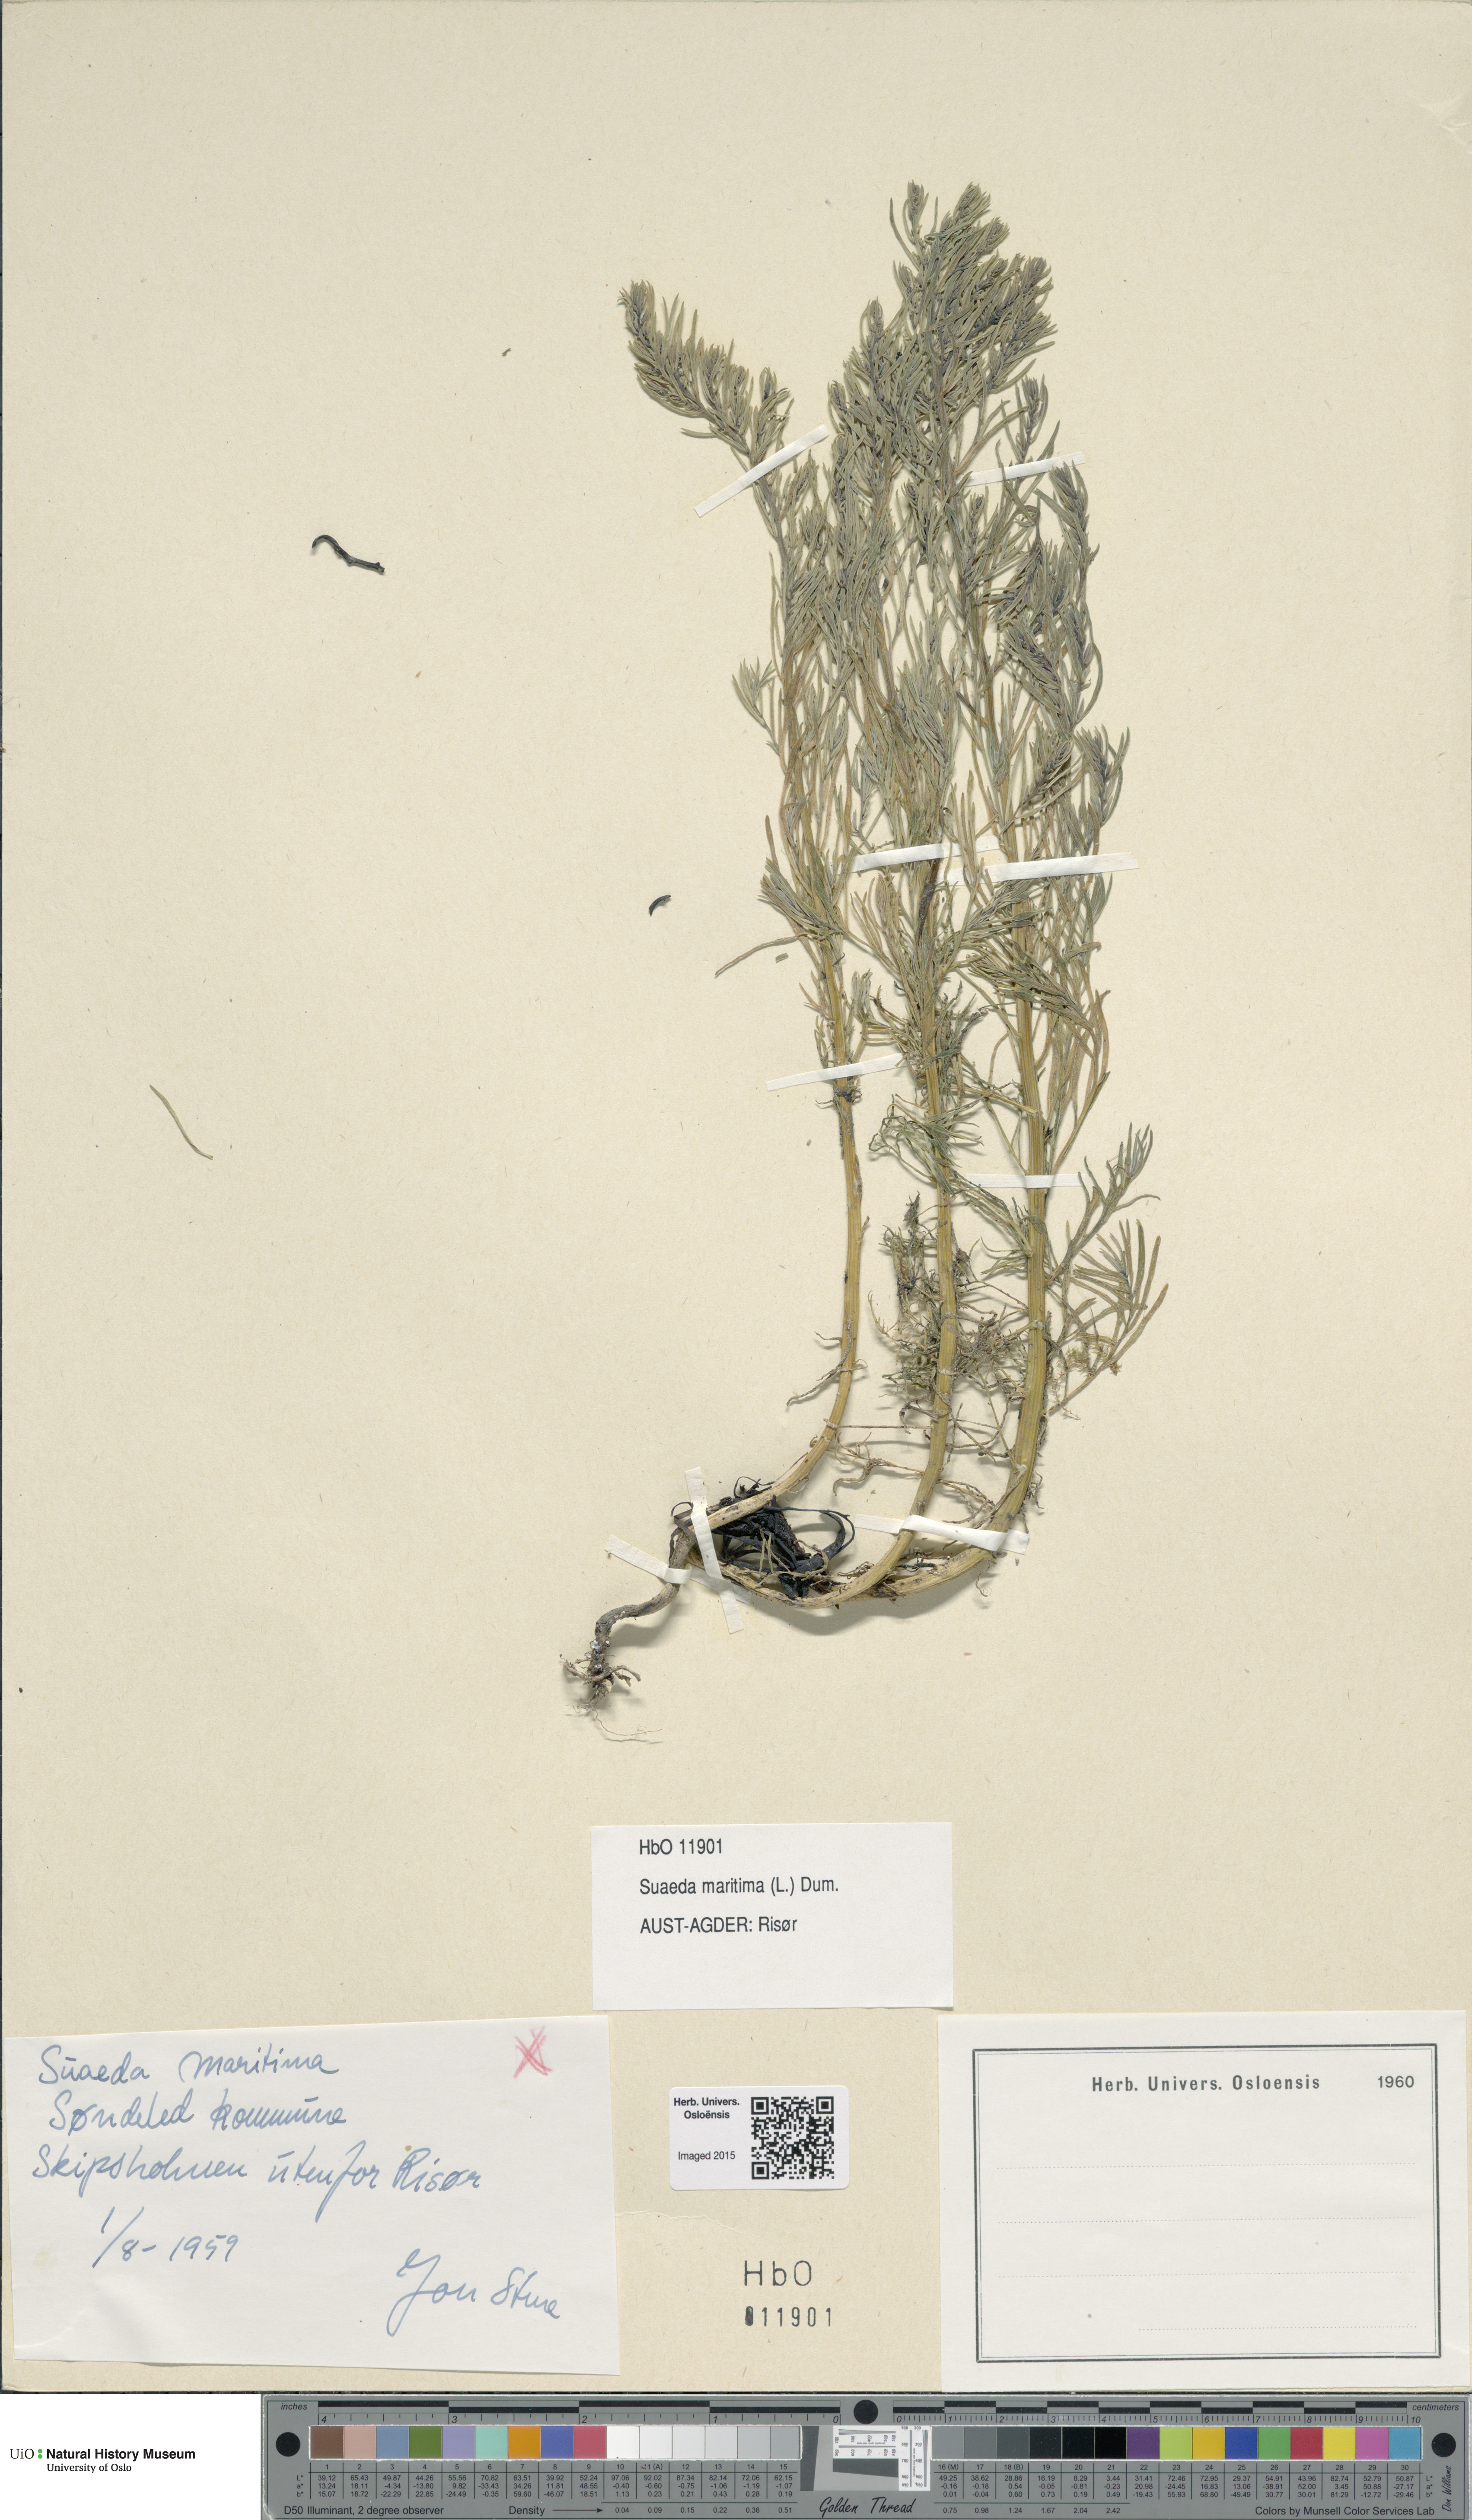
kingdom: Plantae
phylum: Tracheophyta
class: Magnoliopsida
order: Caryophyllales
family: Amaranthaceae
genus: Suaeda
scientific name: Suaeda maritima
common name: Annual sea-blite
